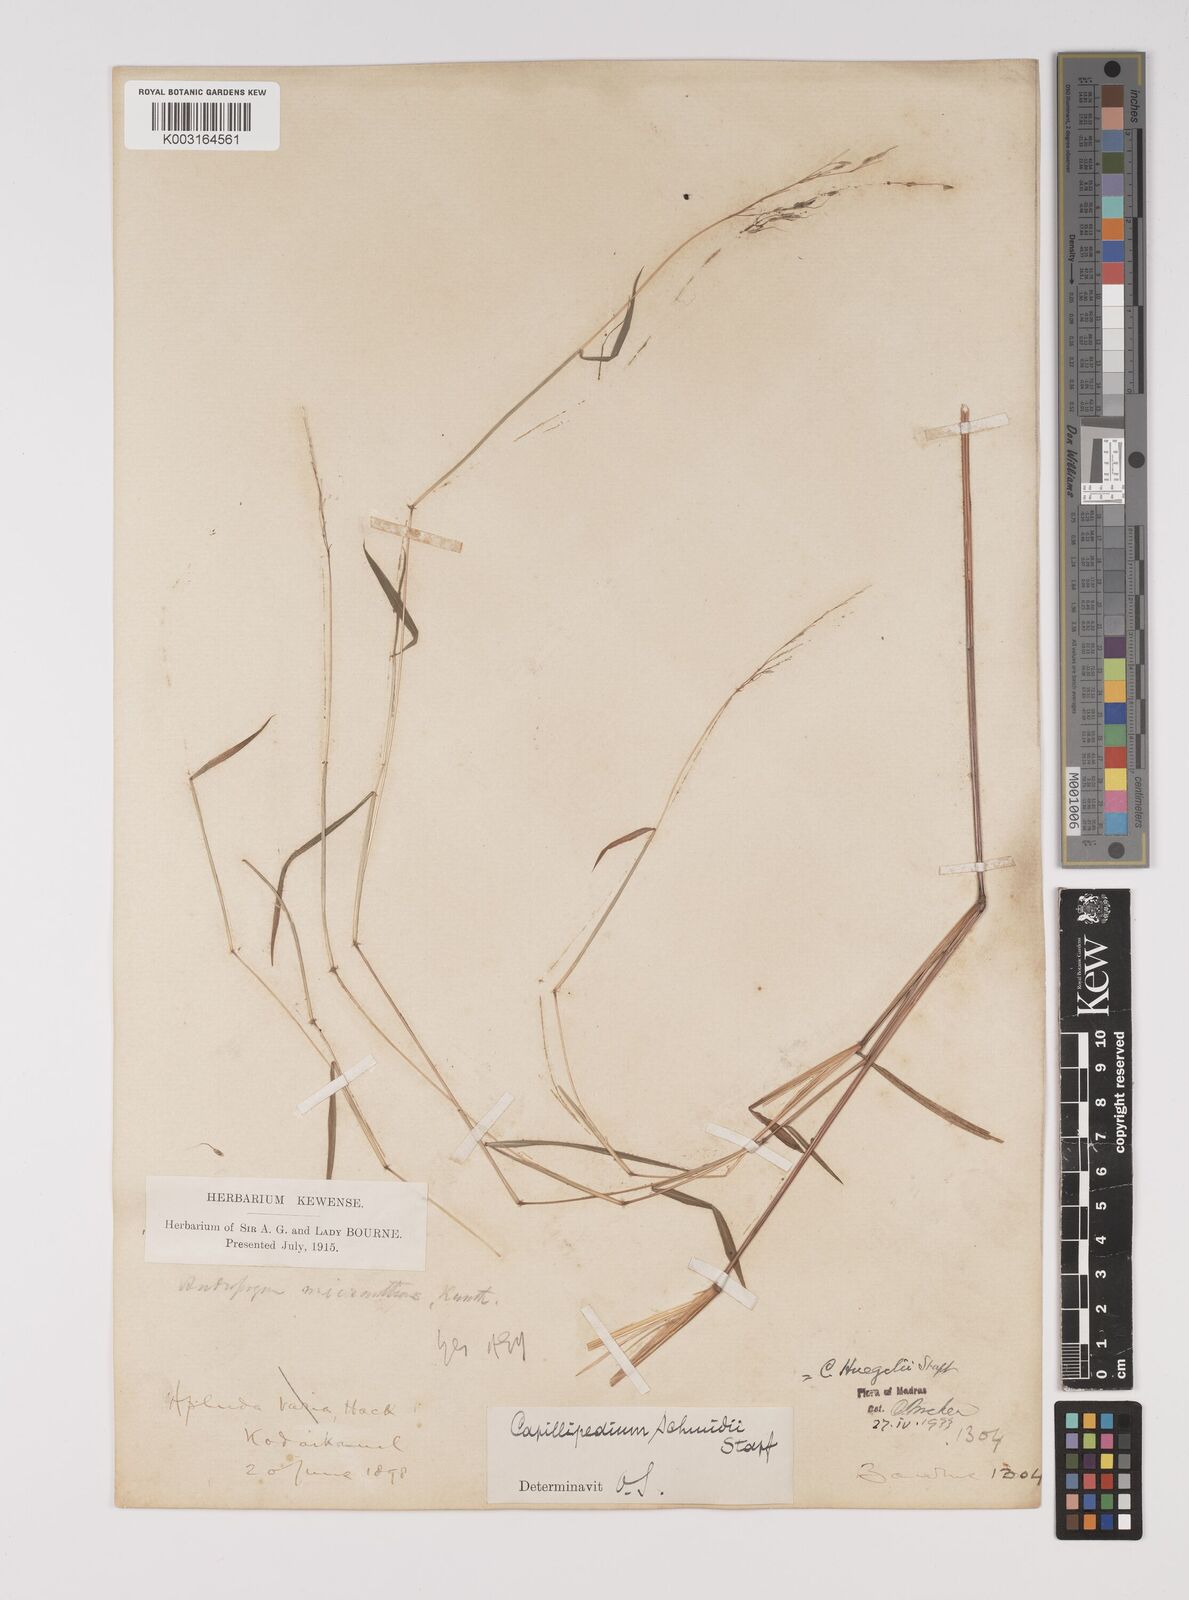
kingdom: Plantae
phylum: Tracheophyta
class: Liliopsida
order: Poales
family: Poaceae
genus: Capillipedium
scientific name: Capillipedium huegelii
